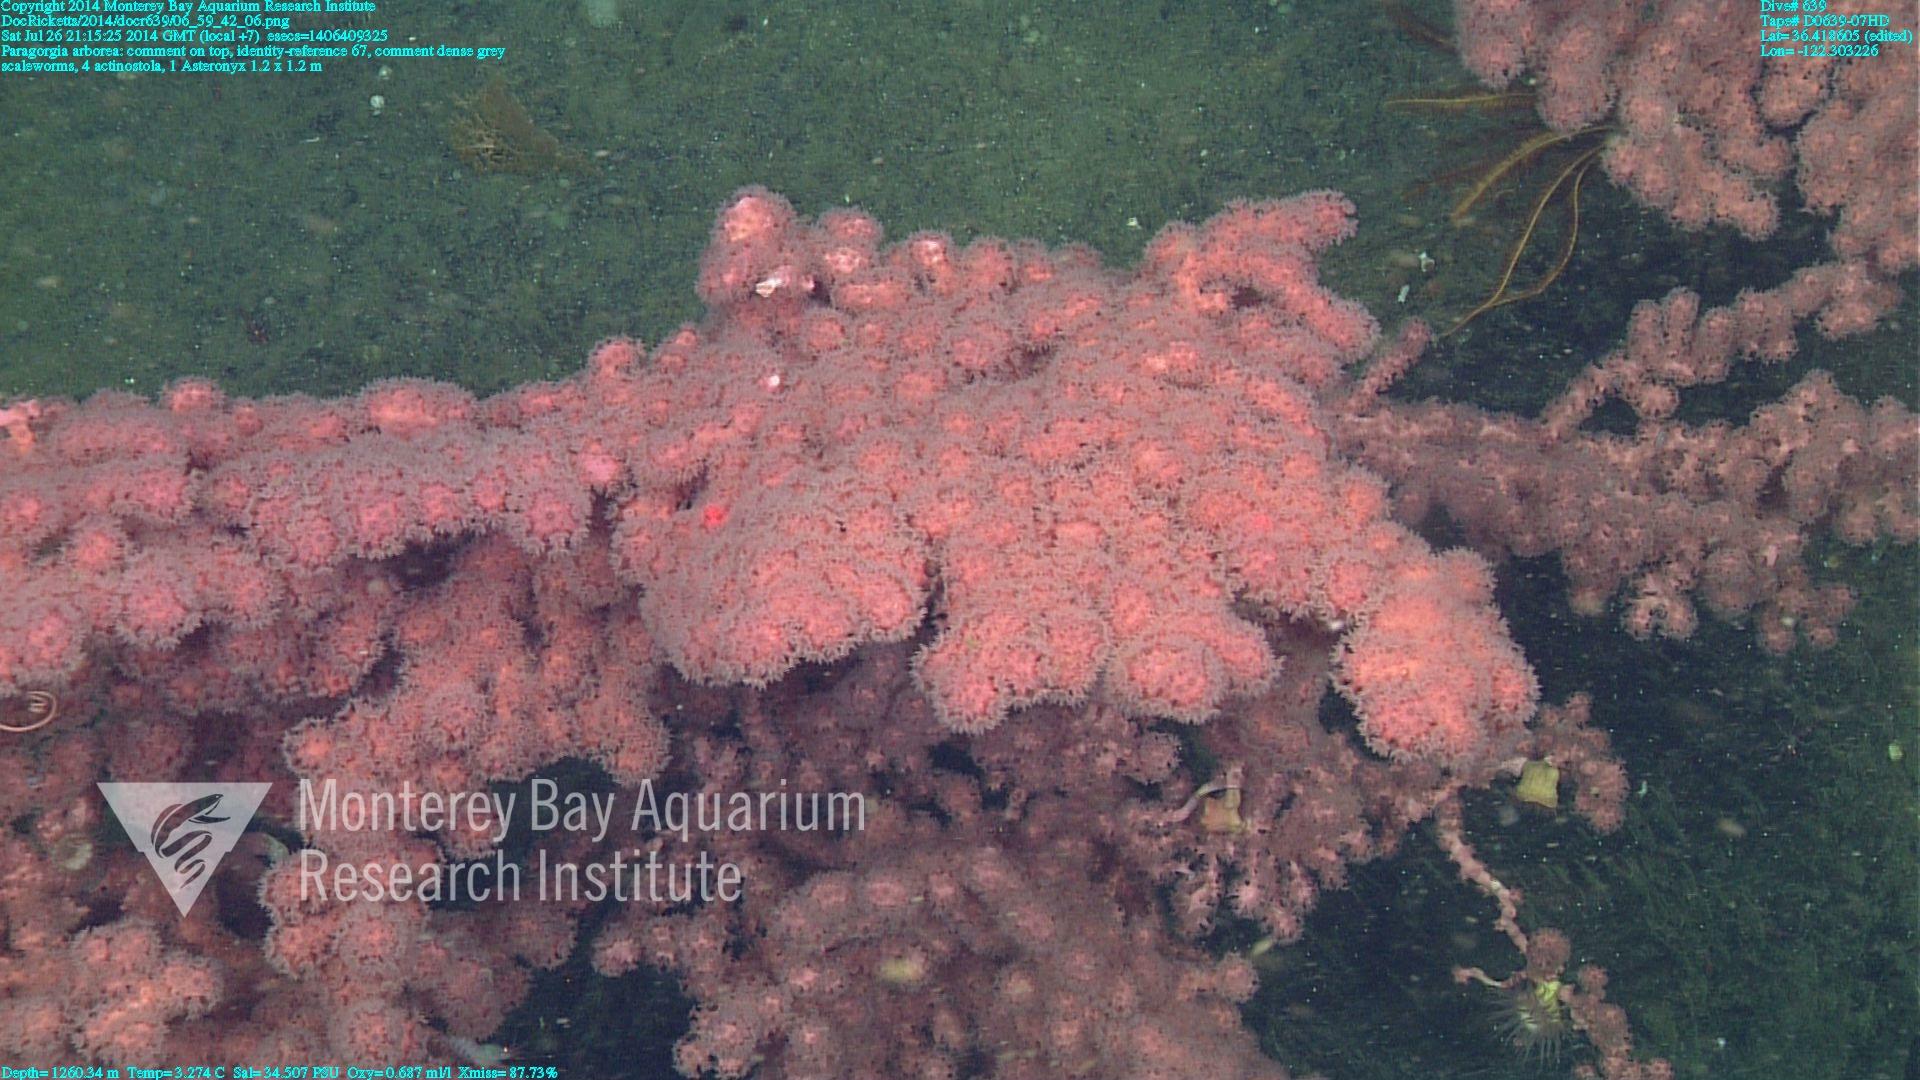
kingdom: Animalia
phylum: Cnidaria
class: Anthozoa
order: Scleralcyonacea
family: Coralliidae
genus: Paragorgia
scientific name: Paragorgia arborea
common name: Bubble gum coral
